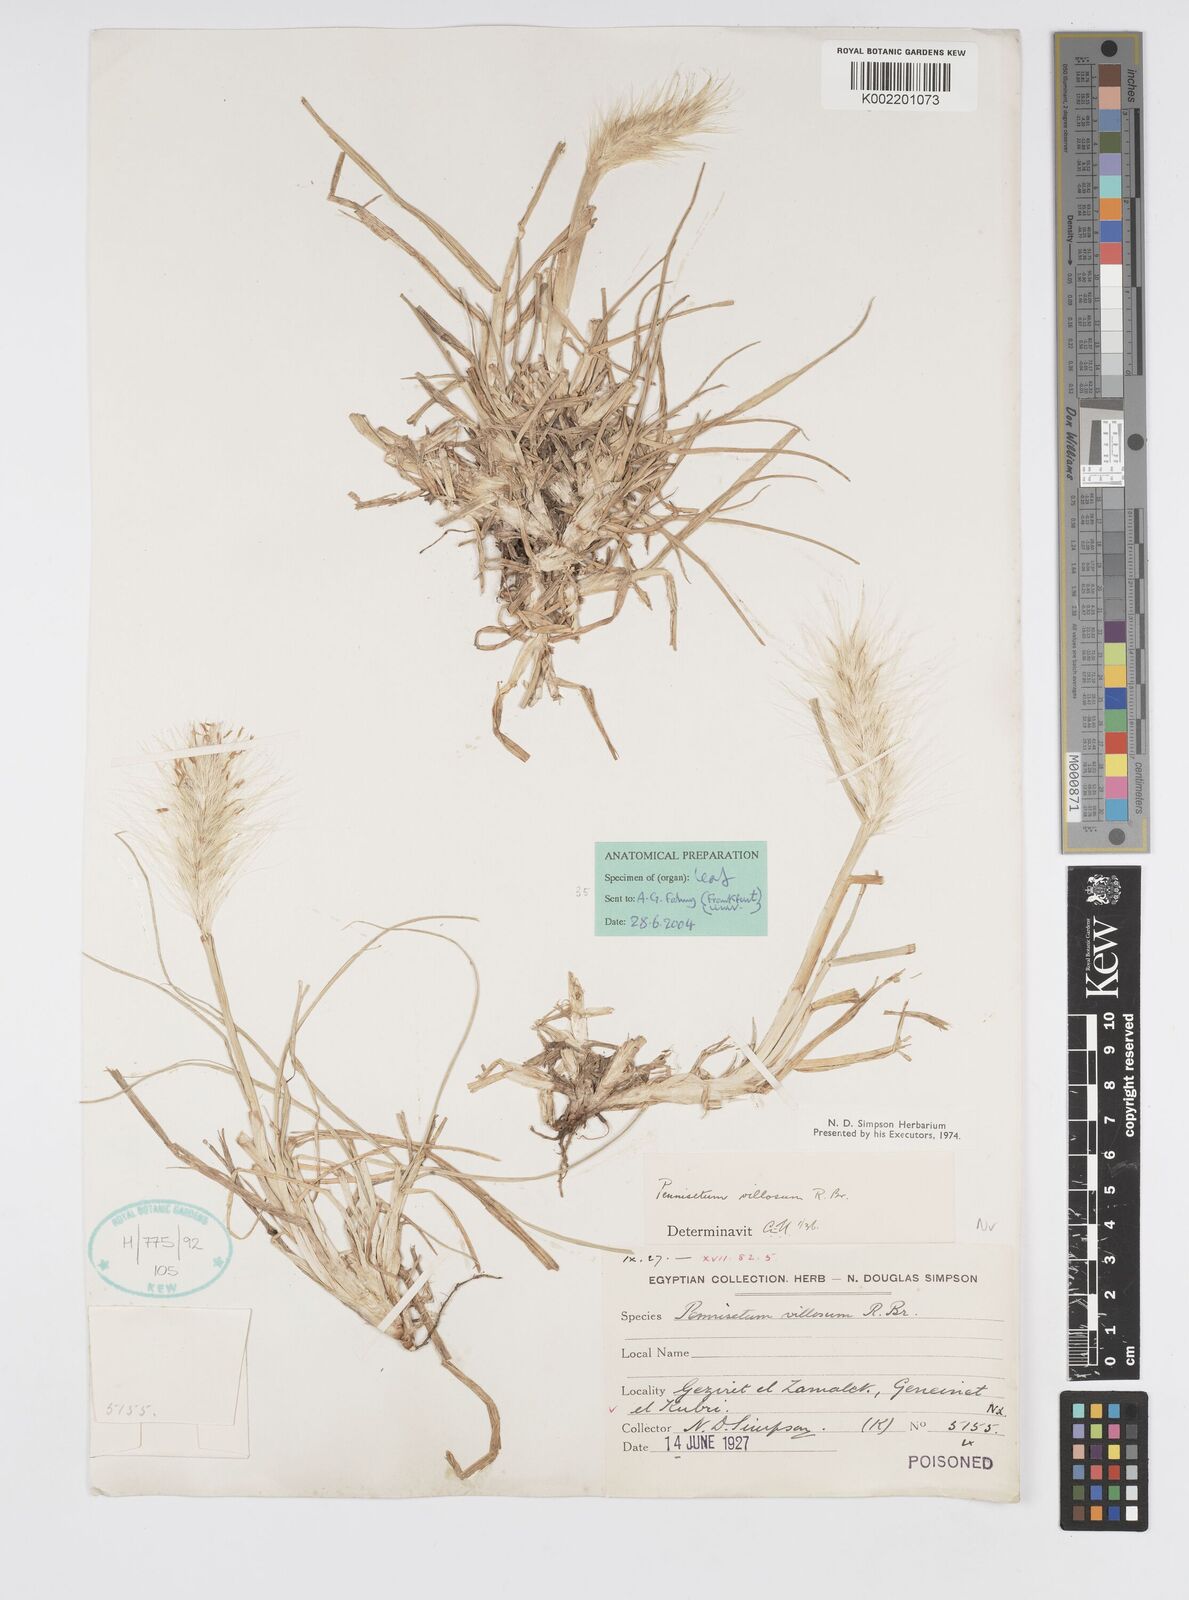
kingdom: Plantae
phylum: Tracheophyta
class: Liliopsida
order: Poales
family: Poaceae
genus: Cenchrus
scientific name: Cenchrus longisetus
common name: Feathertop
